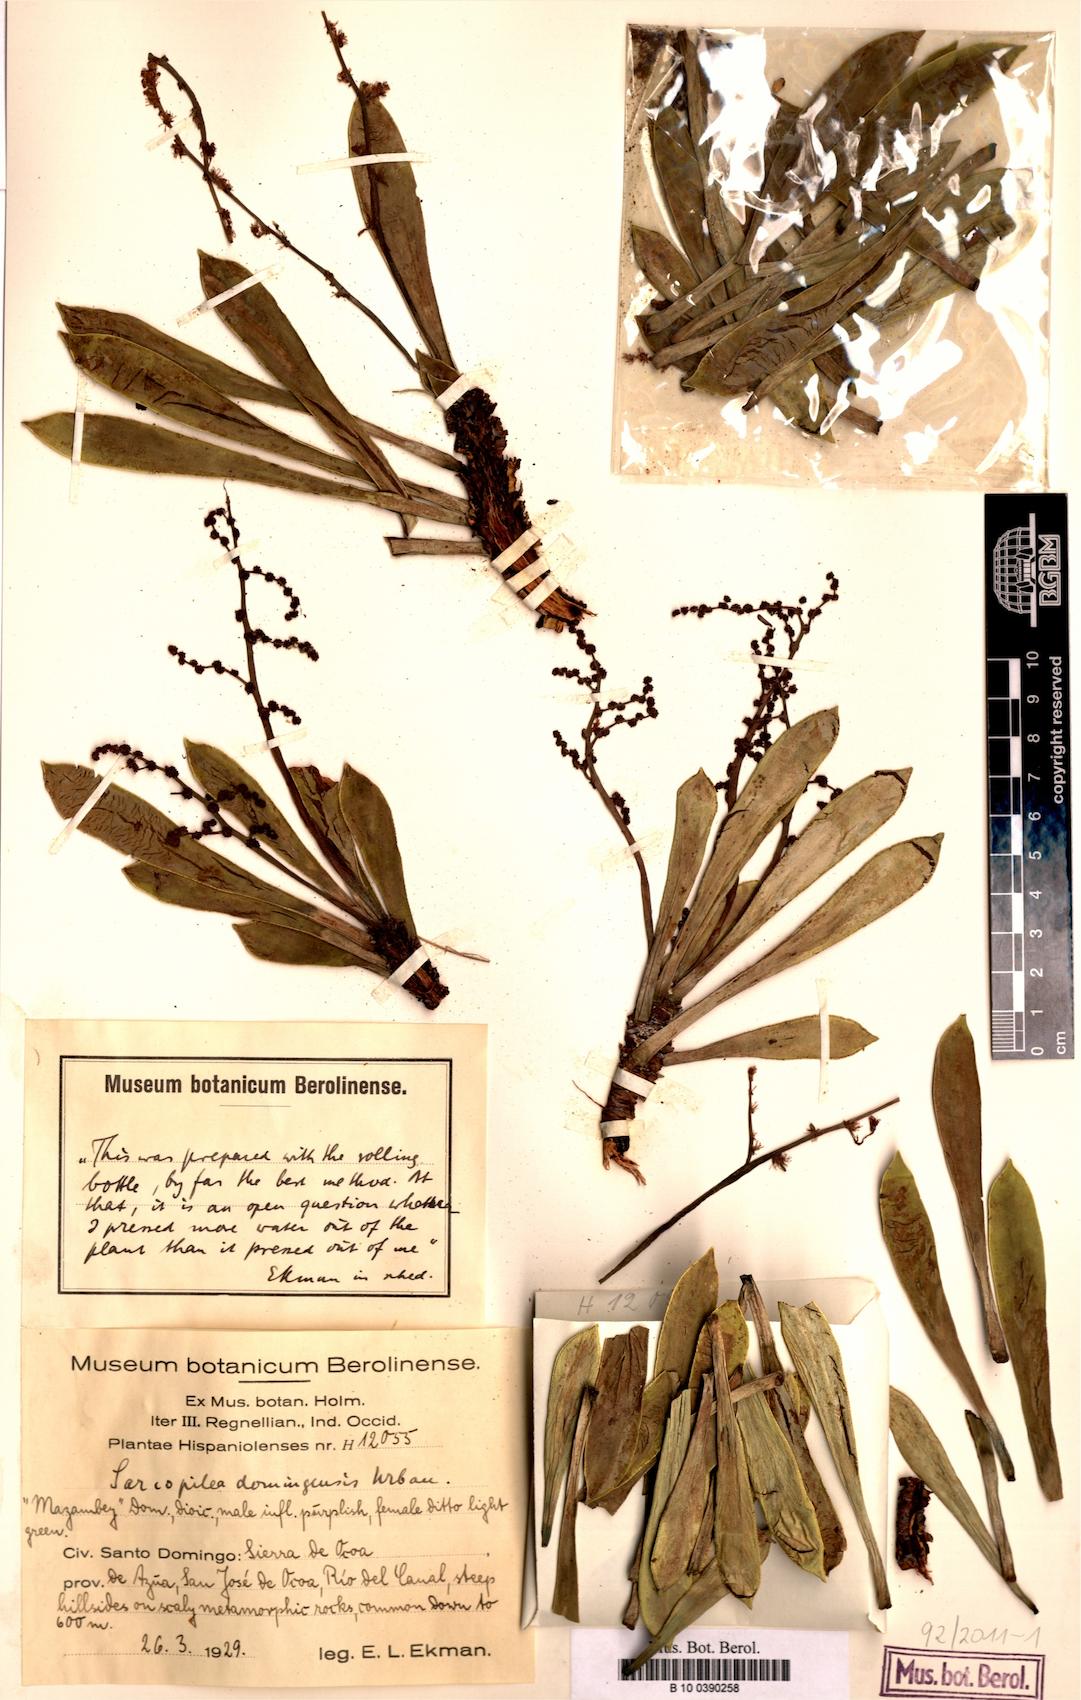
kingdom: Plantae
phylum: Tracheophyta
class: Magnoliopsida
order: Rosales
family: Urticaceae
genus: Pilea
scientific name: Pilea fairchildiana
